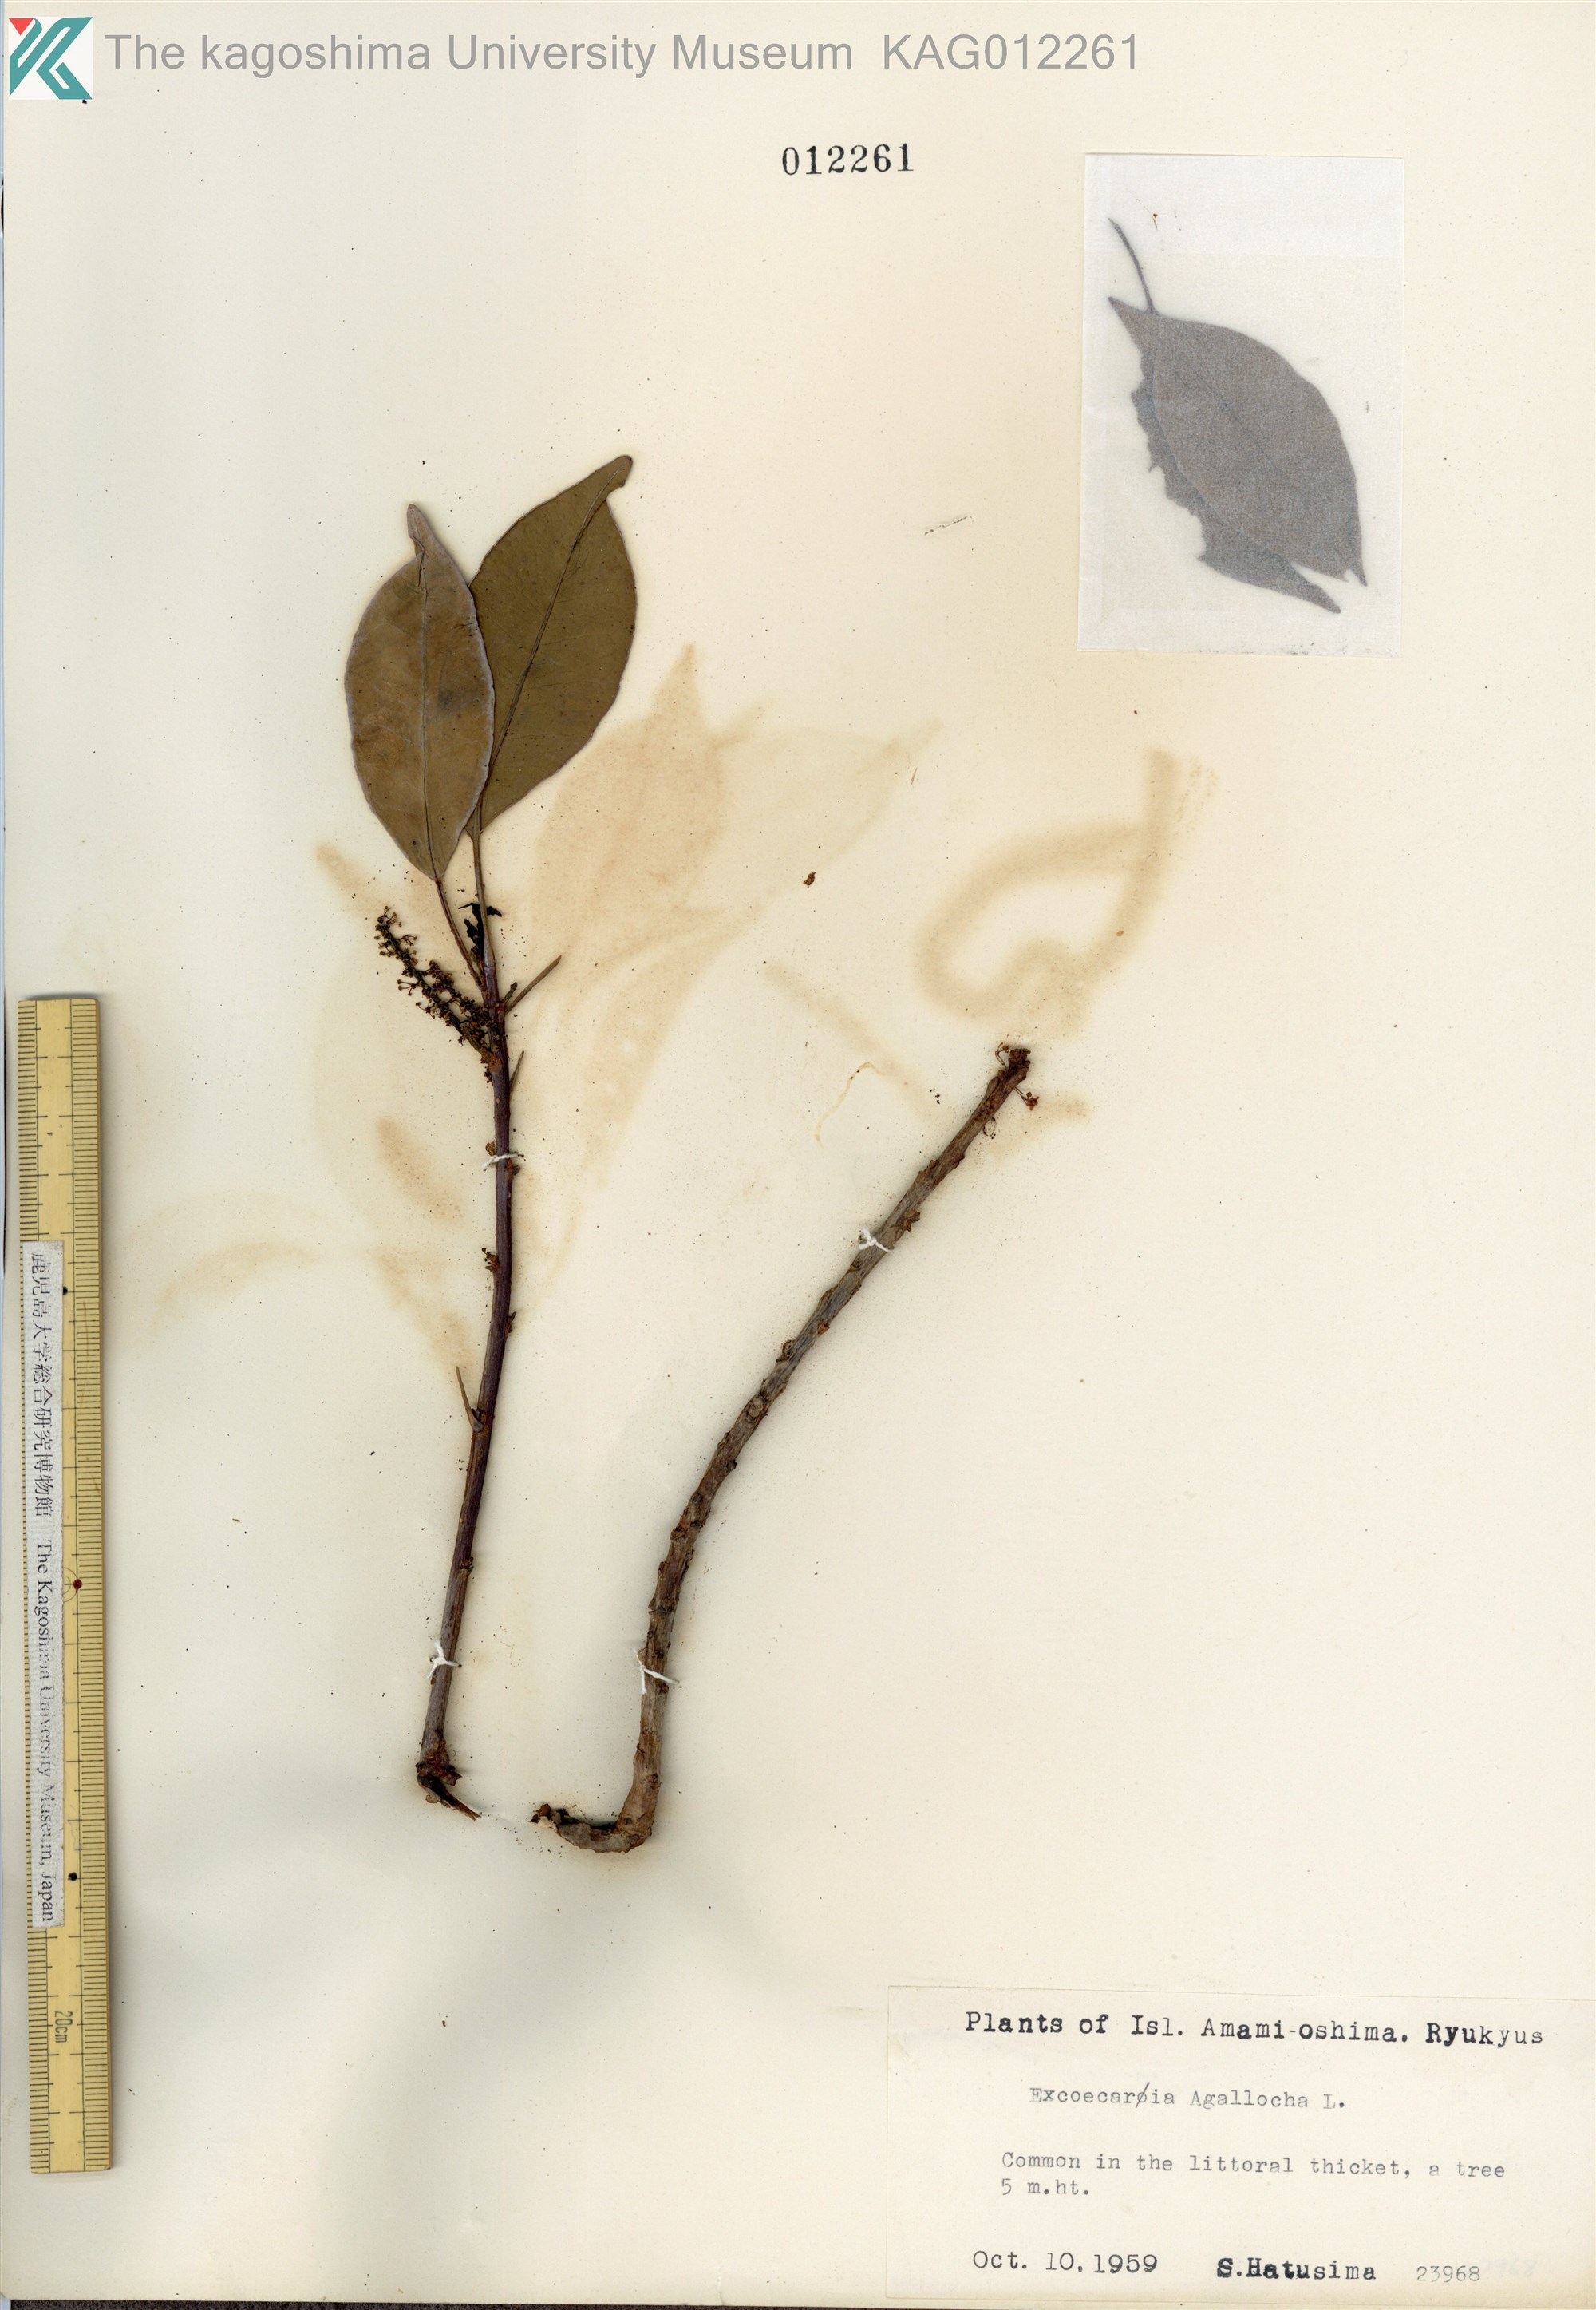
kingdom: Plantae
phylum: Tracheophyta
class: Magnoliopsida
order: Malpighiales
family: Euphorbiaceae
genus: Excoecaria
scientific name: Excoecaria agallocha
